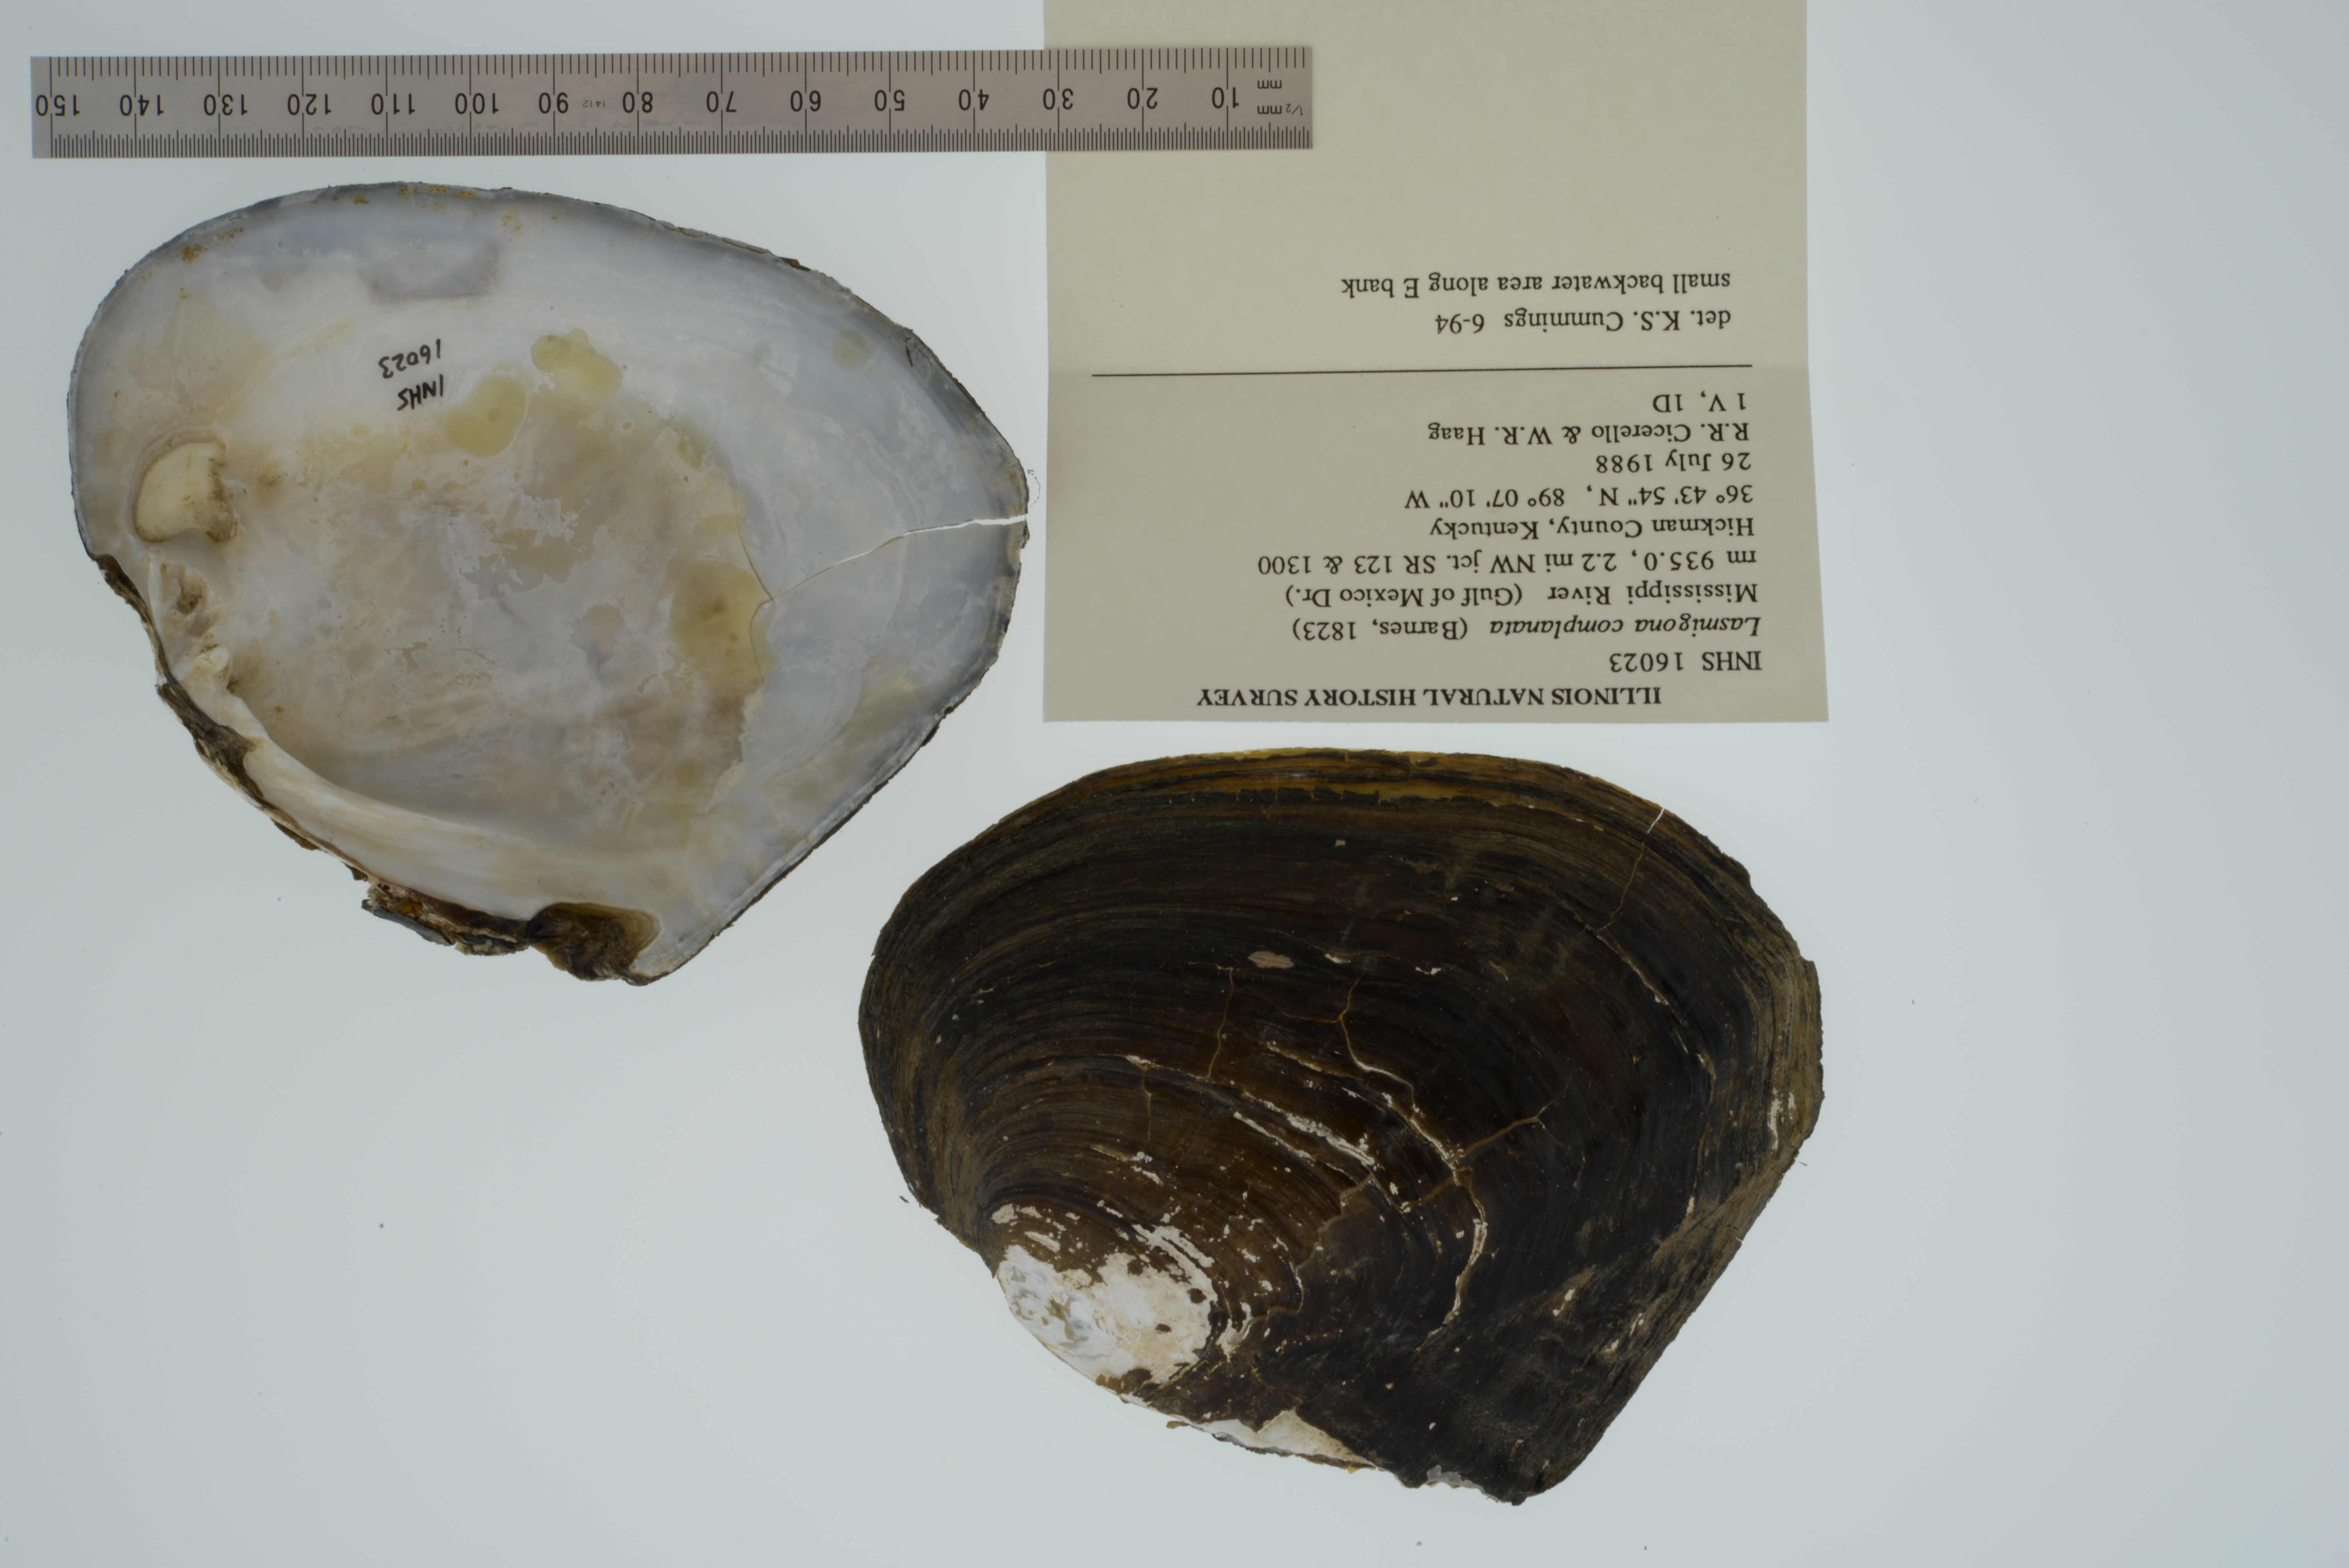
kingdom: Animalia
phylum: Mollusca
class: Bivalvia
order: Unionida
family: Unionidae
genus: Lasmigona
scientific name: Lasmigona complanata
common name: White heelsplitter
